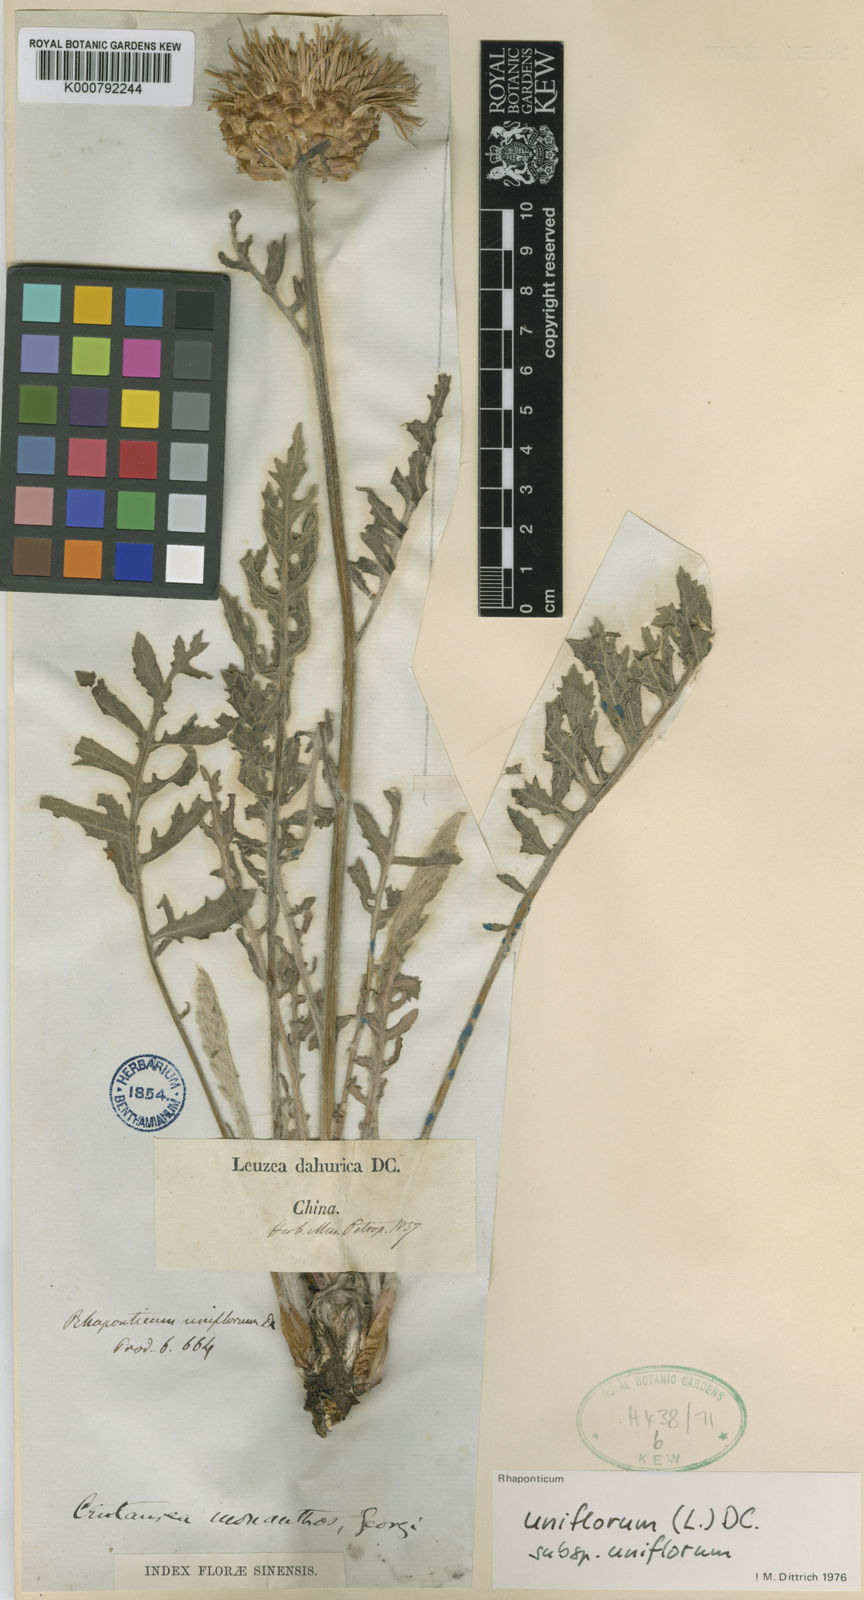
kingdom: Plantae
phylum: Tracheophyta
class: Magnoliopsida
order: Asterales
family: Asteraceae
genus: Leuzea
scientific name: Leuzea uniflora
